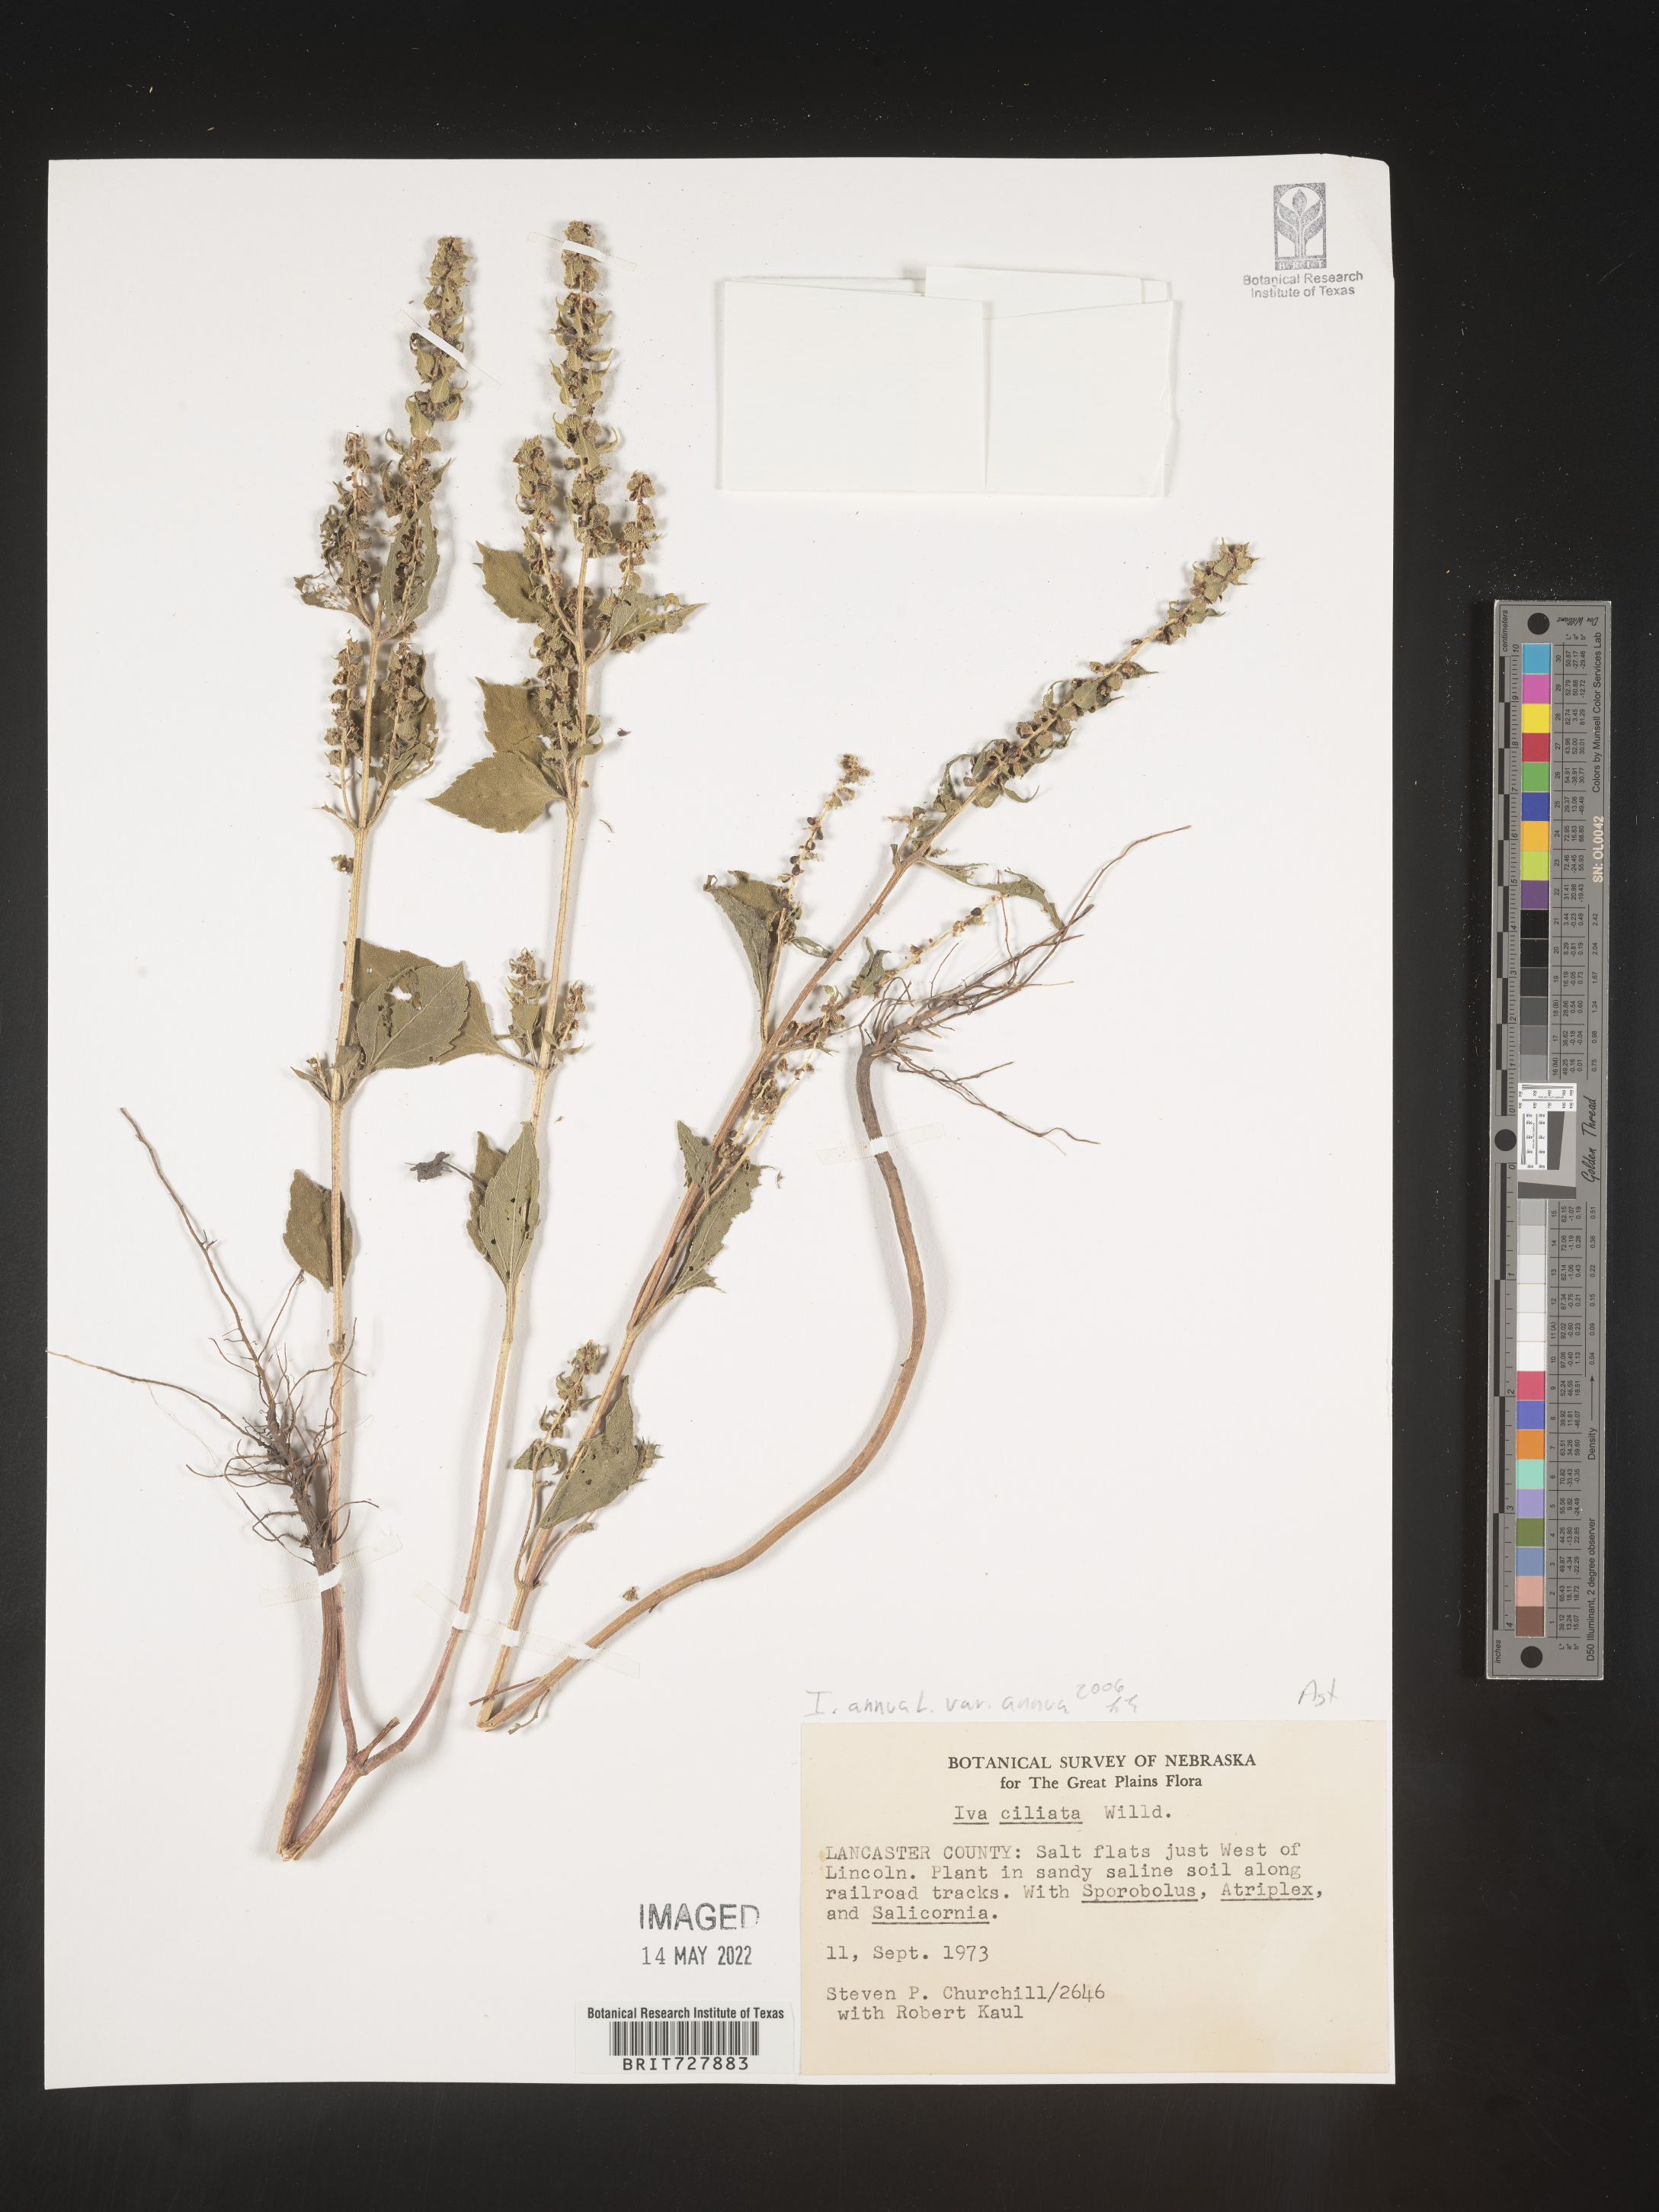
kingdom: Plantae
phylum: Tracheophyta
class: Magnoliopsida
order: Asterales
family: Asteraceae
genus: Iva
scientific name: Iva annua
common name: Marsh-elder
